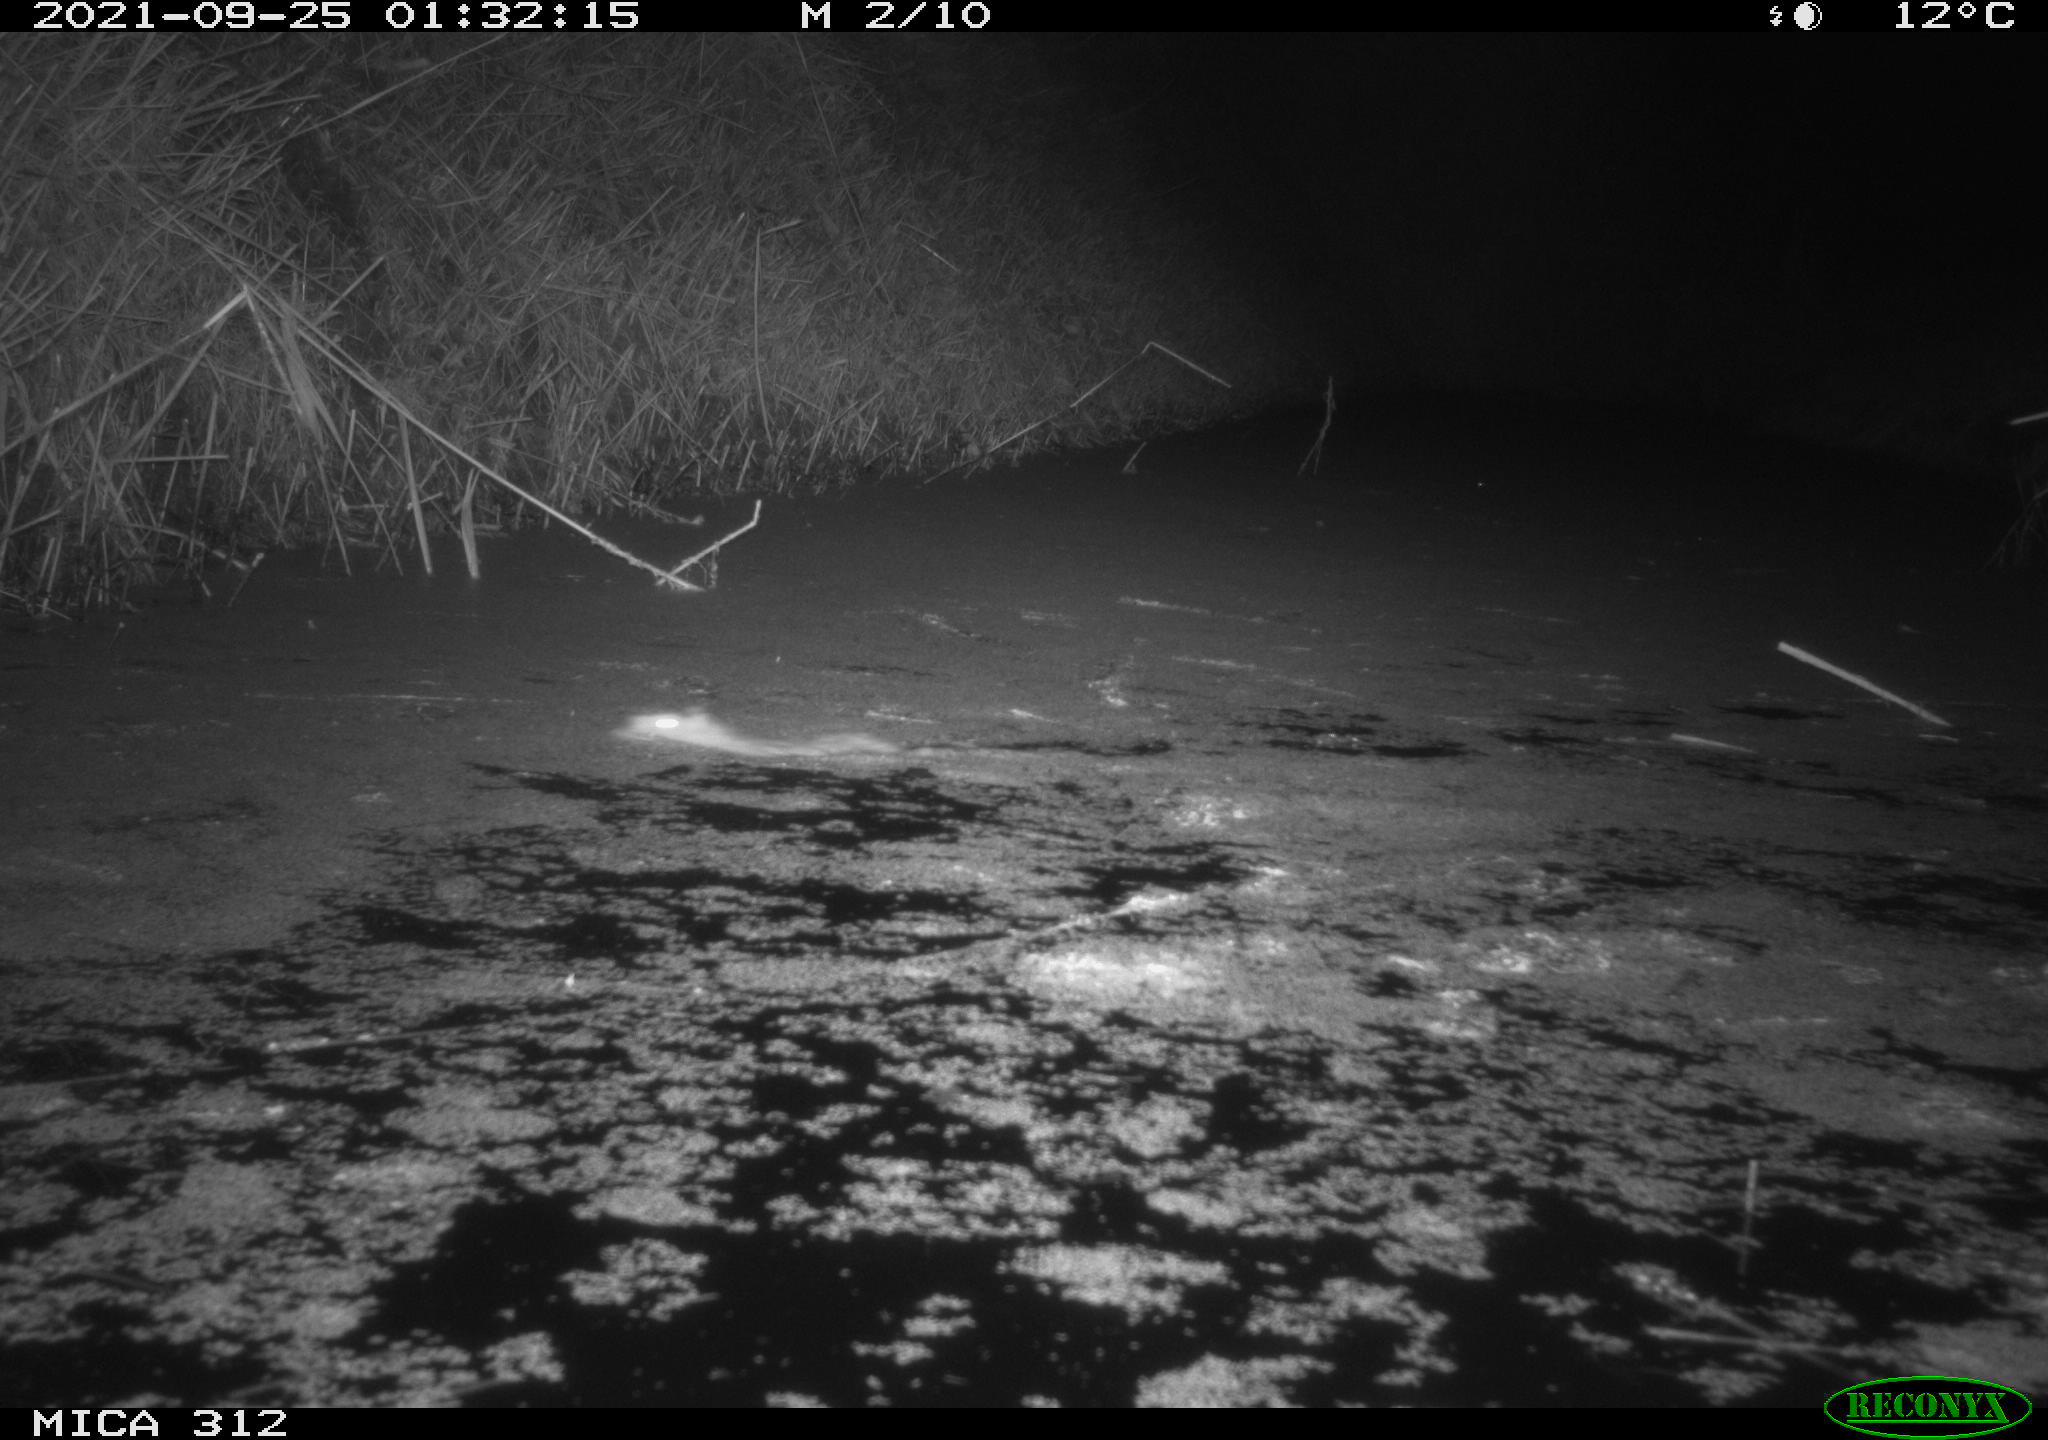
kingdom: Animalia
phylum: Chordata
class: Mammalia
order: Rodentia
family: Muridae
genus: Rattus
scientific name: Rattus norvegicus
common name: Brown rat
